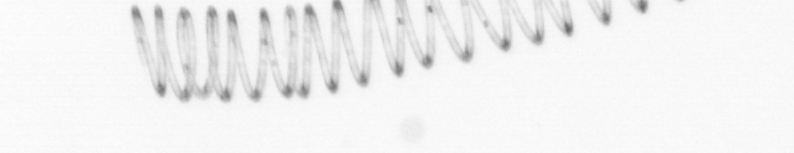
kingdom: Chromista
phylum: Ochrophyta
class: Bacillariophyceae
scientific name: Bacillariophyceae
